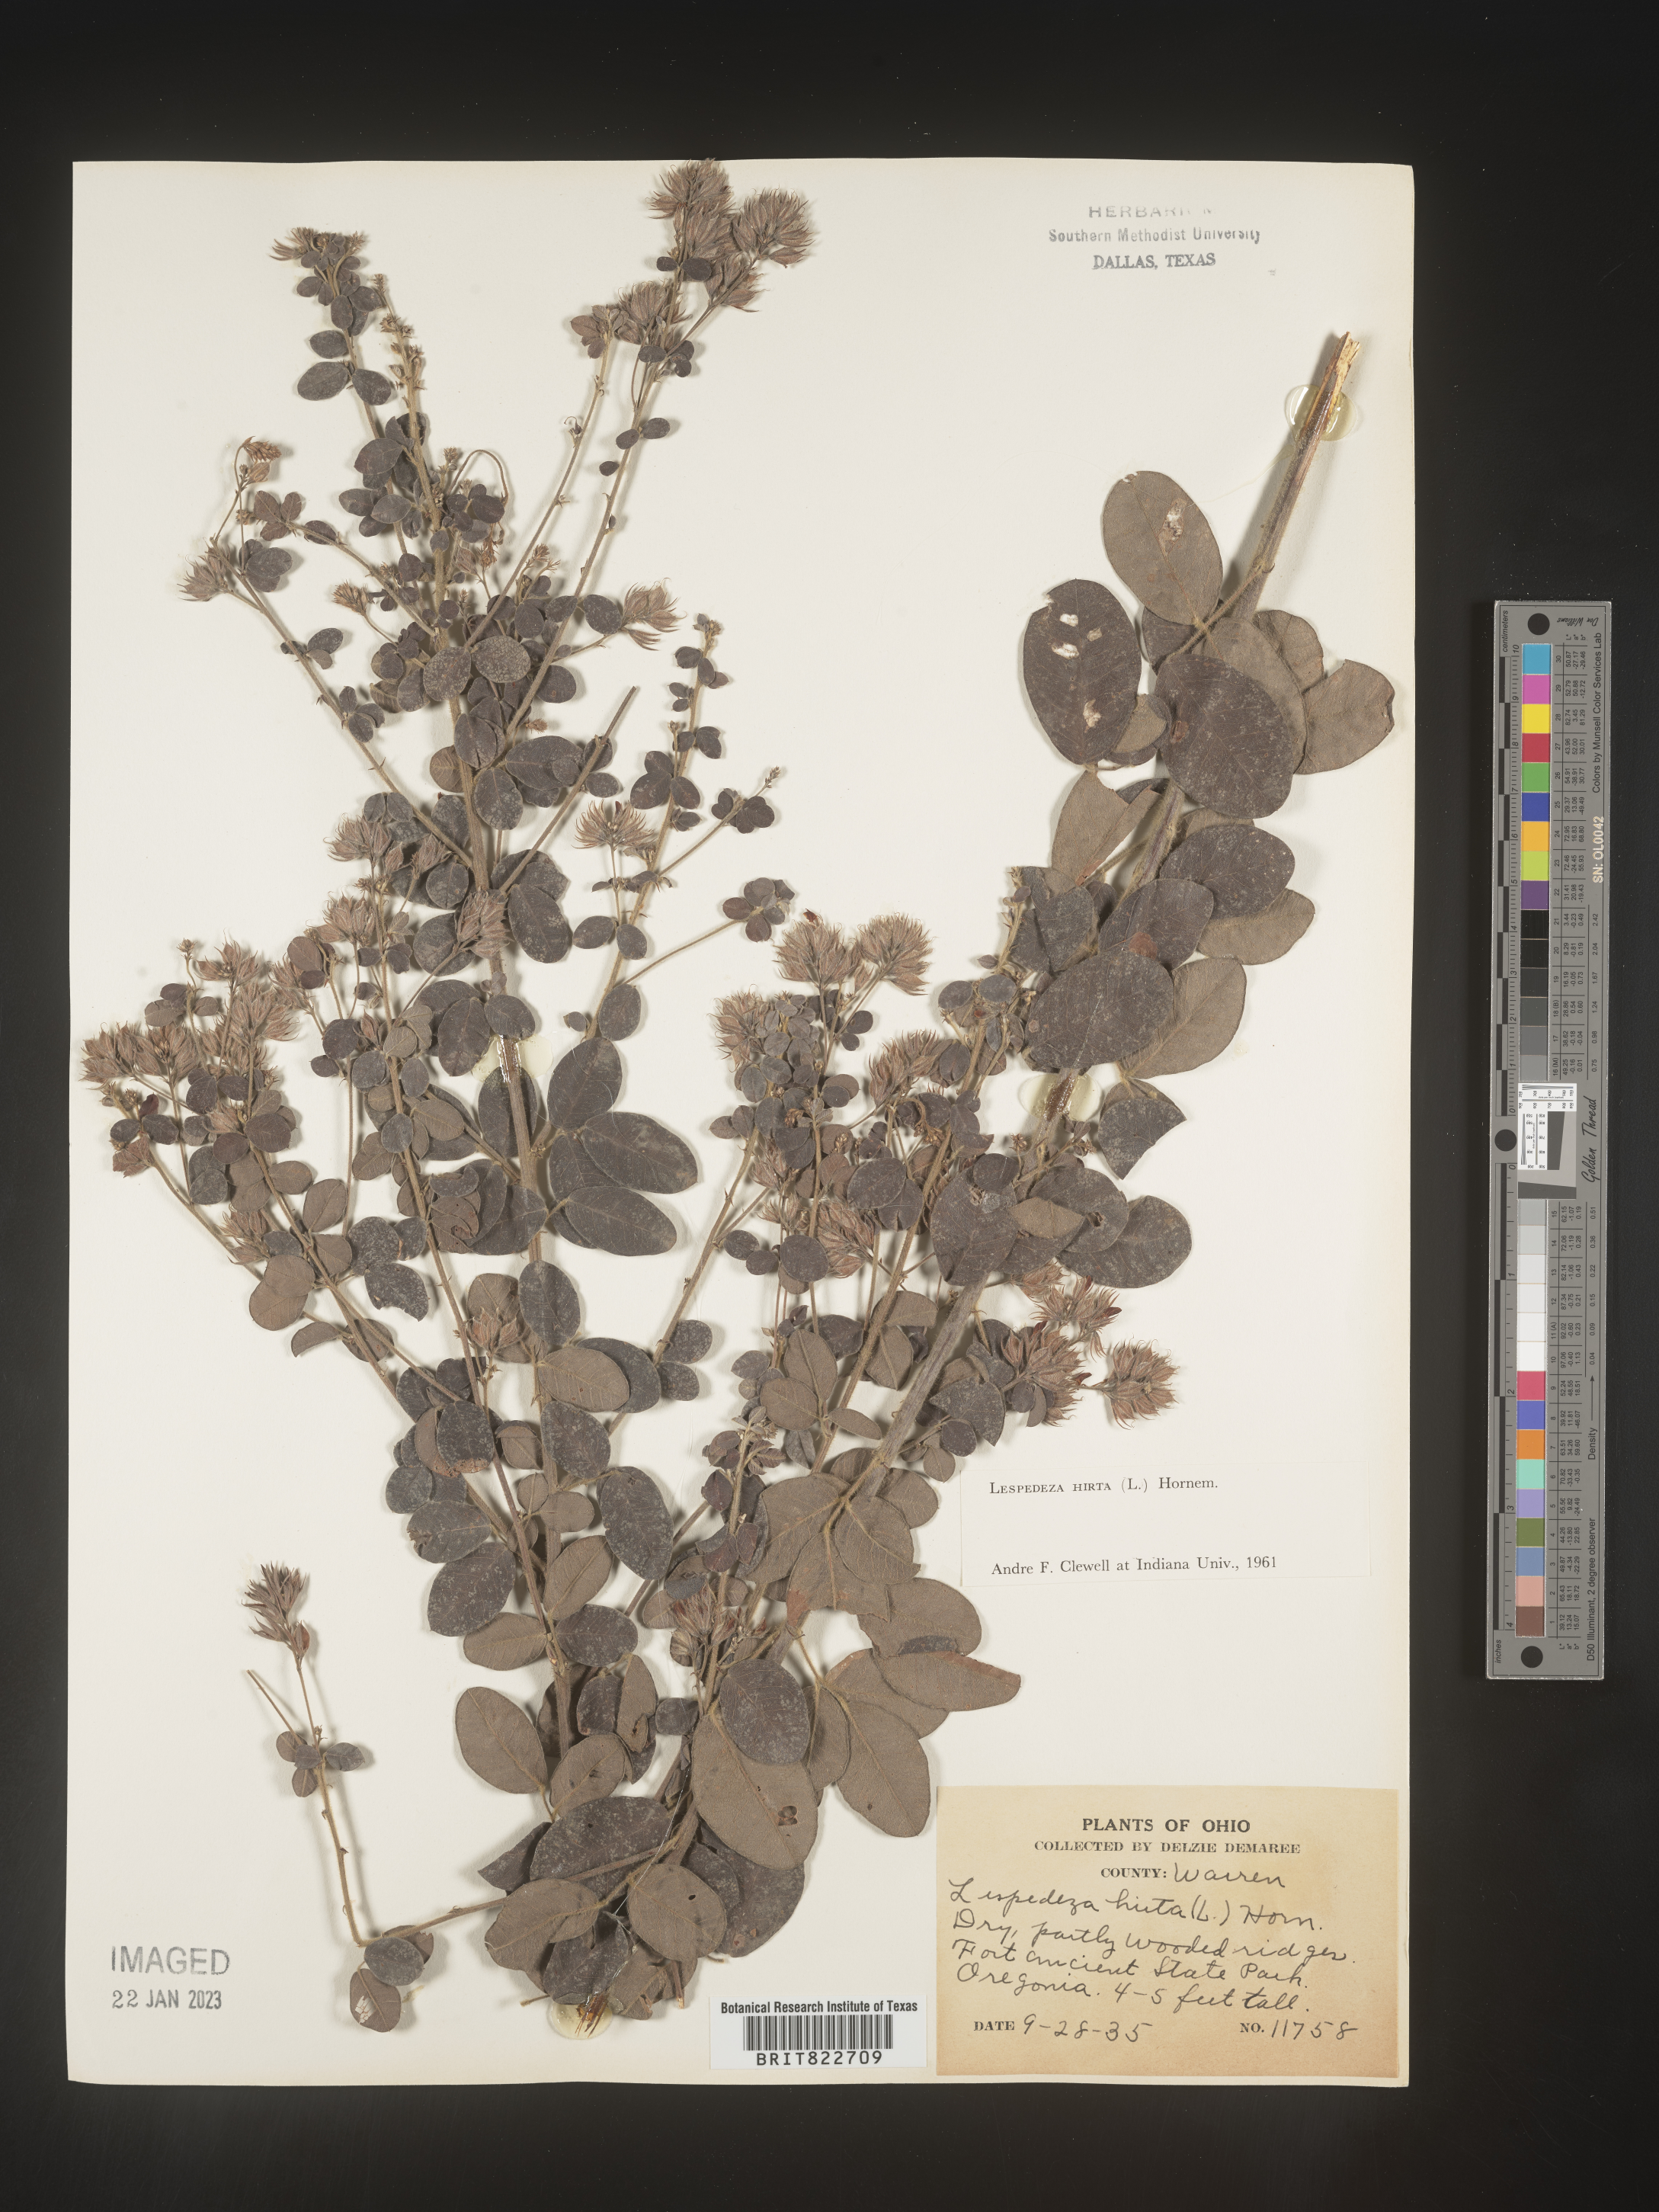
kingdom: Plantae
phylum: Tracheophyta
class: Magnoliopsida
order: Fabales
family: Fabaceae
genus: Lespedeza
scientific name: Lespedeza hirta
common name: Hairy lespedeza
